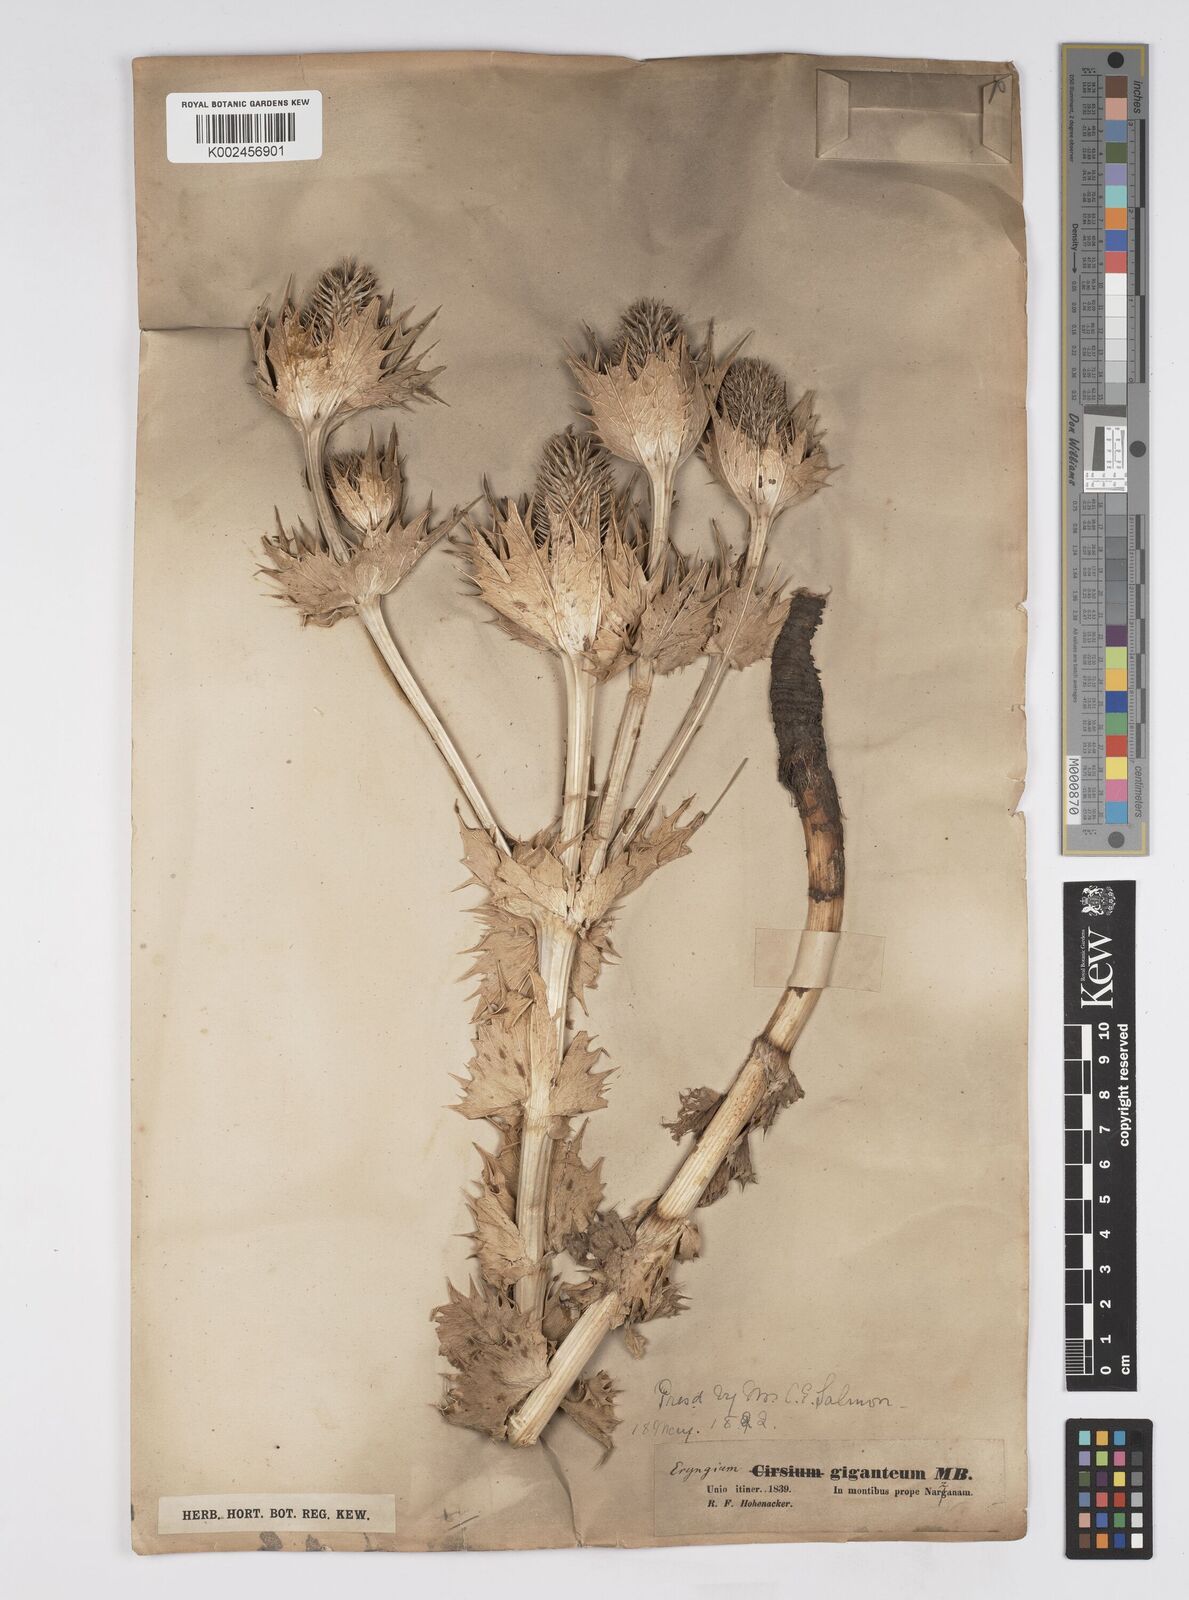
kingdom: Plantae
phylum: Tracheophyta
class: Magnoliopsida
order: Apiales
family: Apiaceae
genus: Eryngium
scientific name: Eryngium giganteum
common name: Tall eryngo
